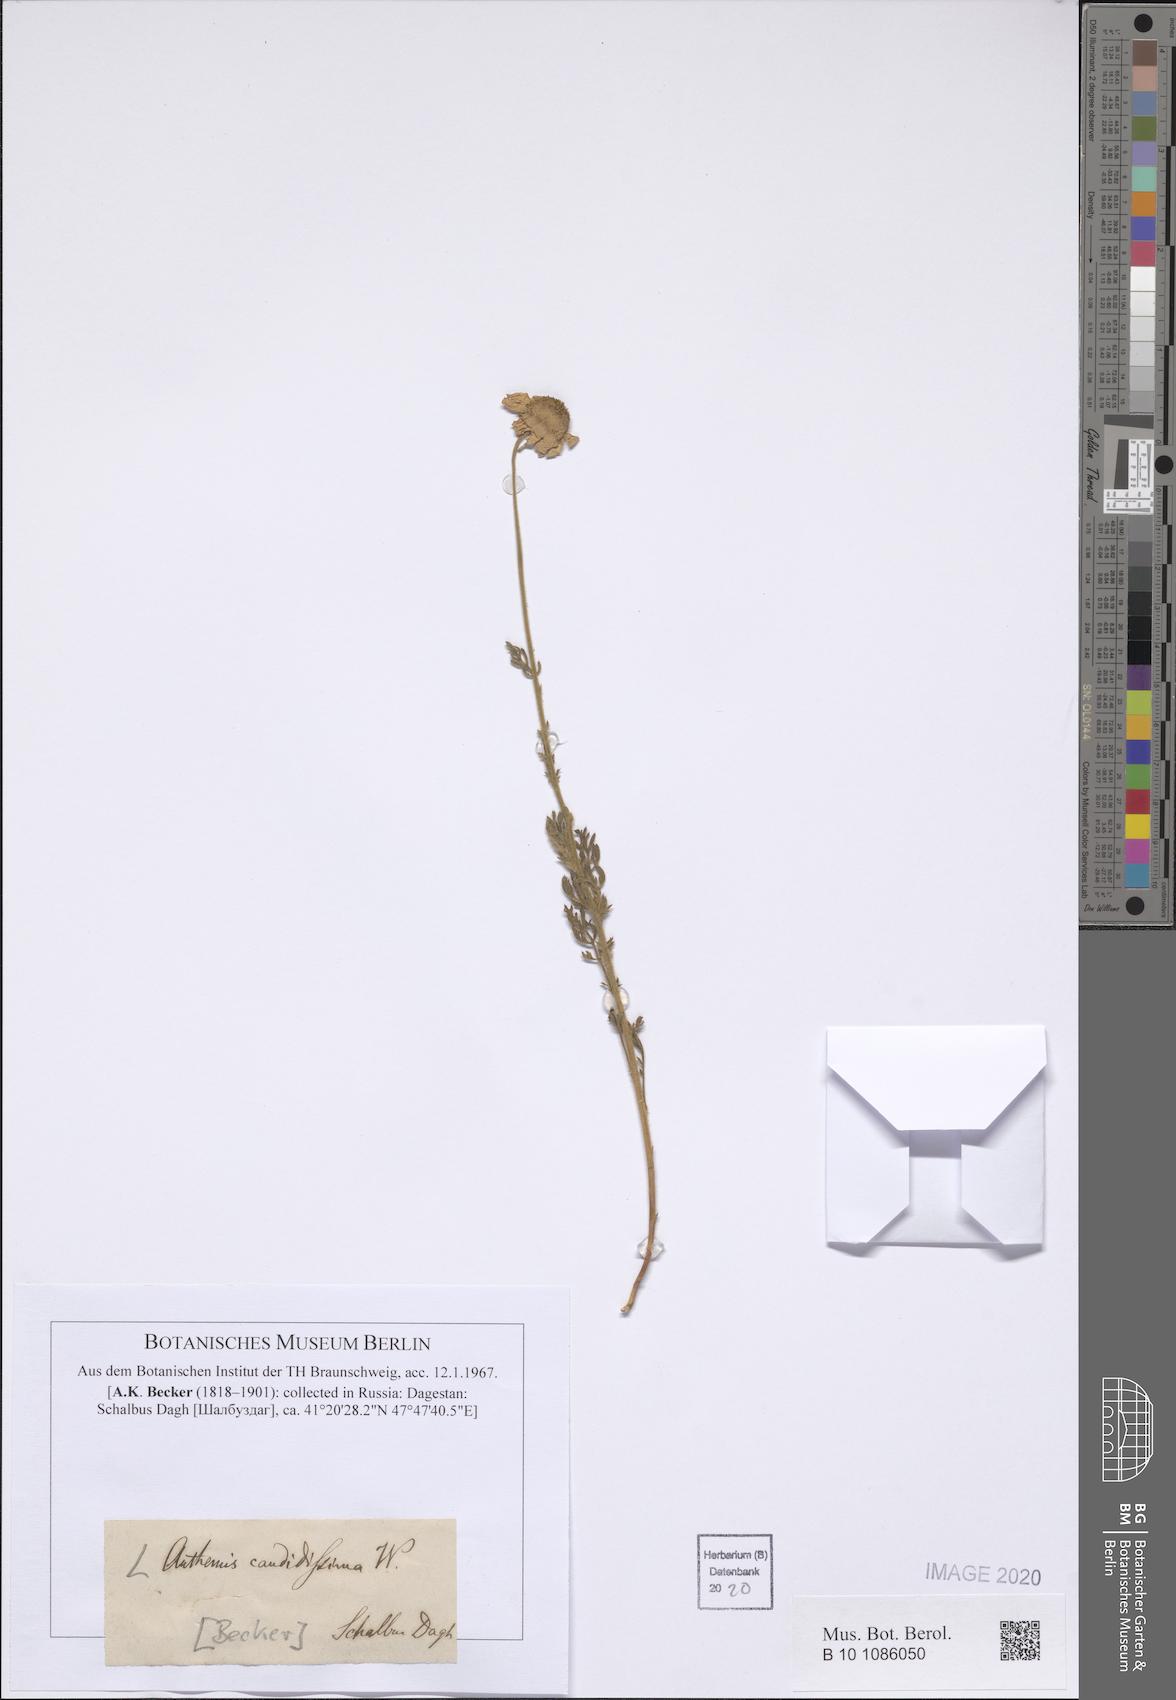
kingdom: Plantae
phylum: Tracheophyta
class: Magnoliopsida
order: Asterales
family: Asteraceae
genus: Anthemis
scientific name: Anthemis candidissima
